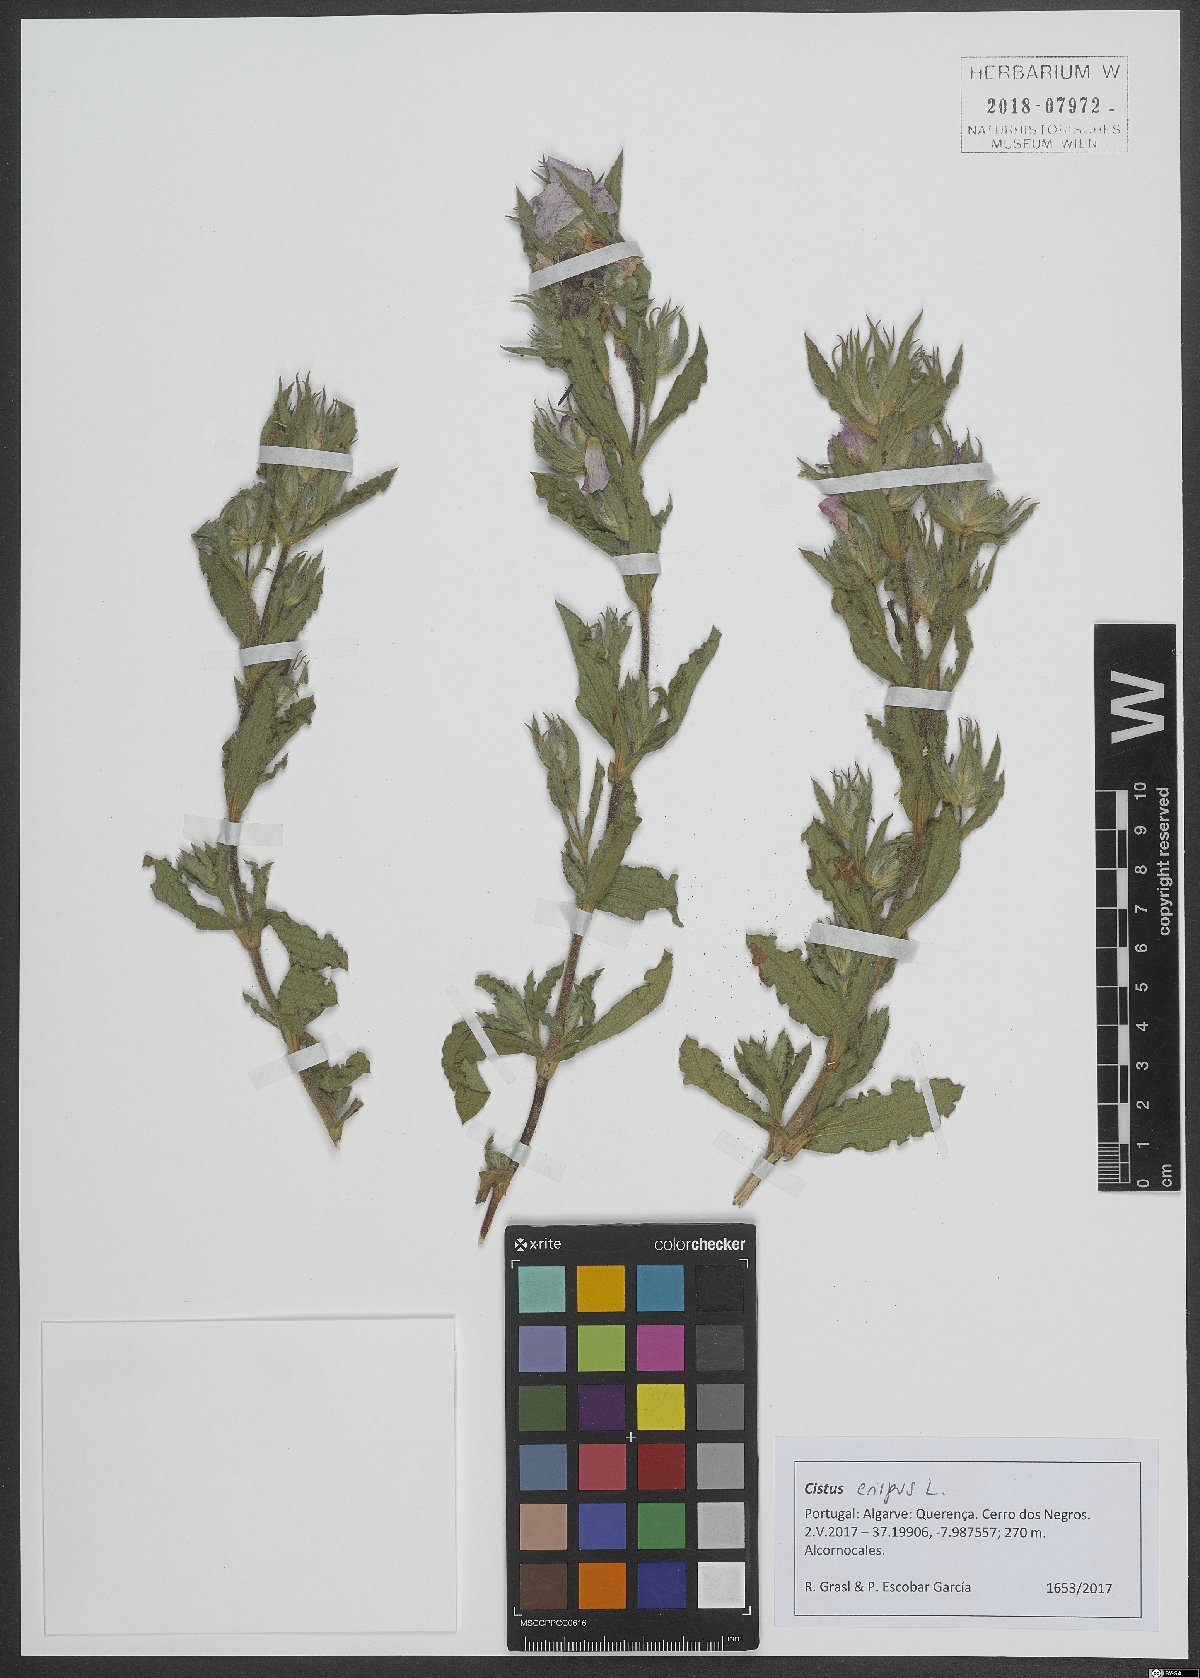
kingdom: Plantae
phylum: Tracheophyta
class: Magnoliopsida
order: Malvales
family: Cistaceae
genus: Cistus
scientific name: Cistus crispus
